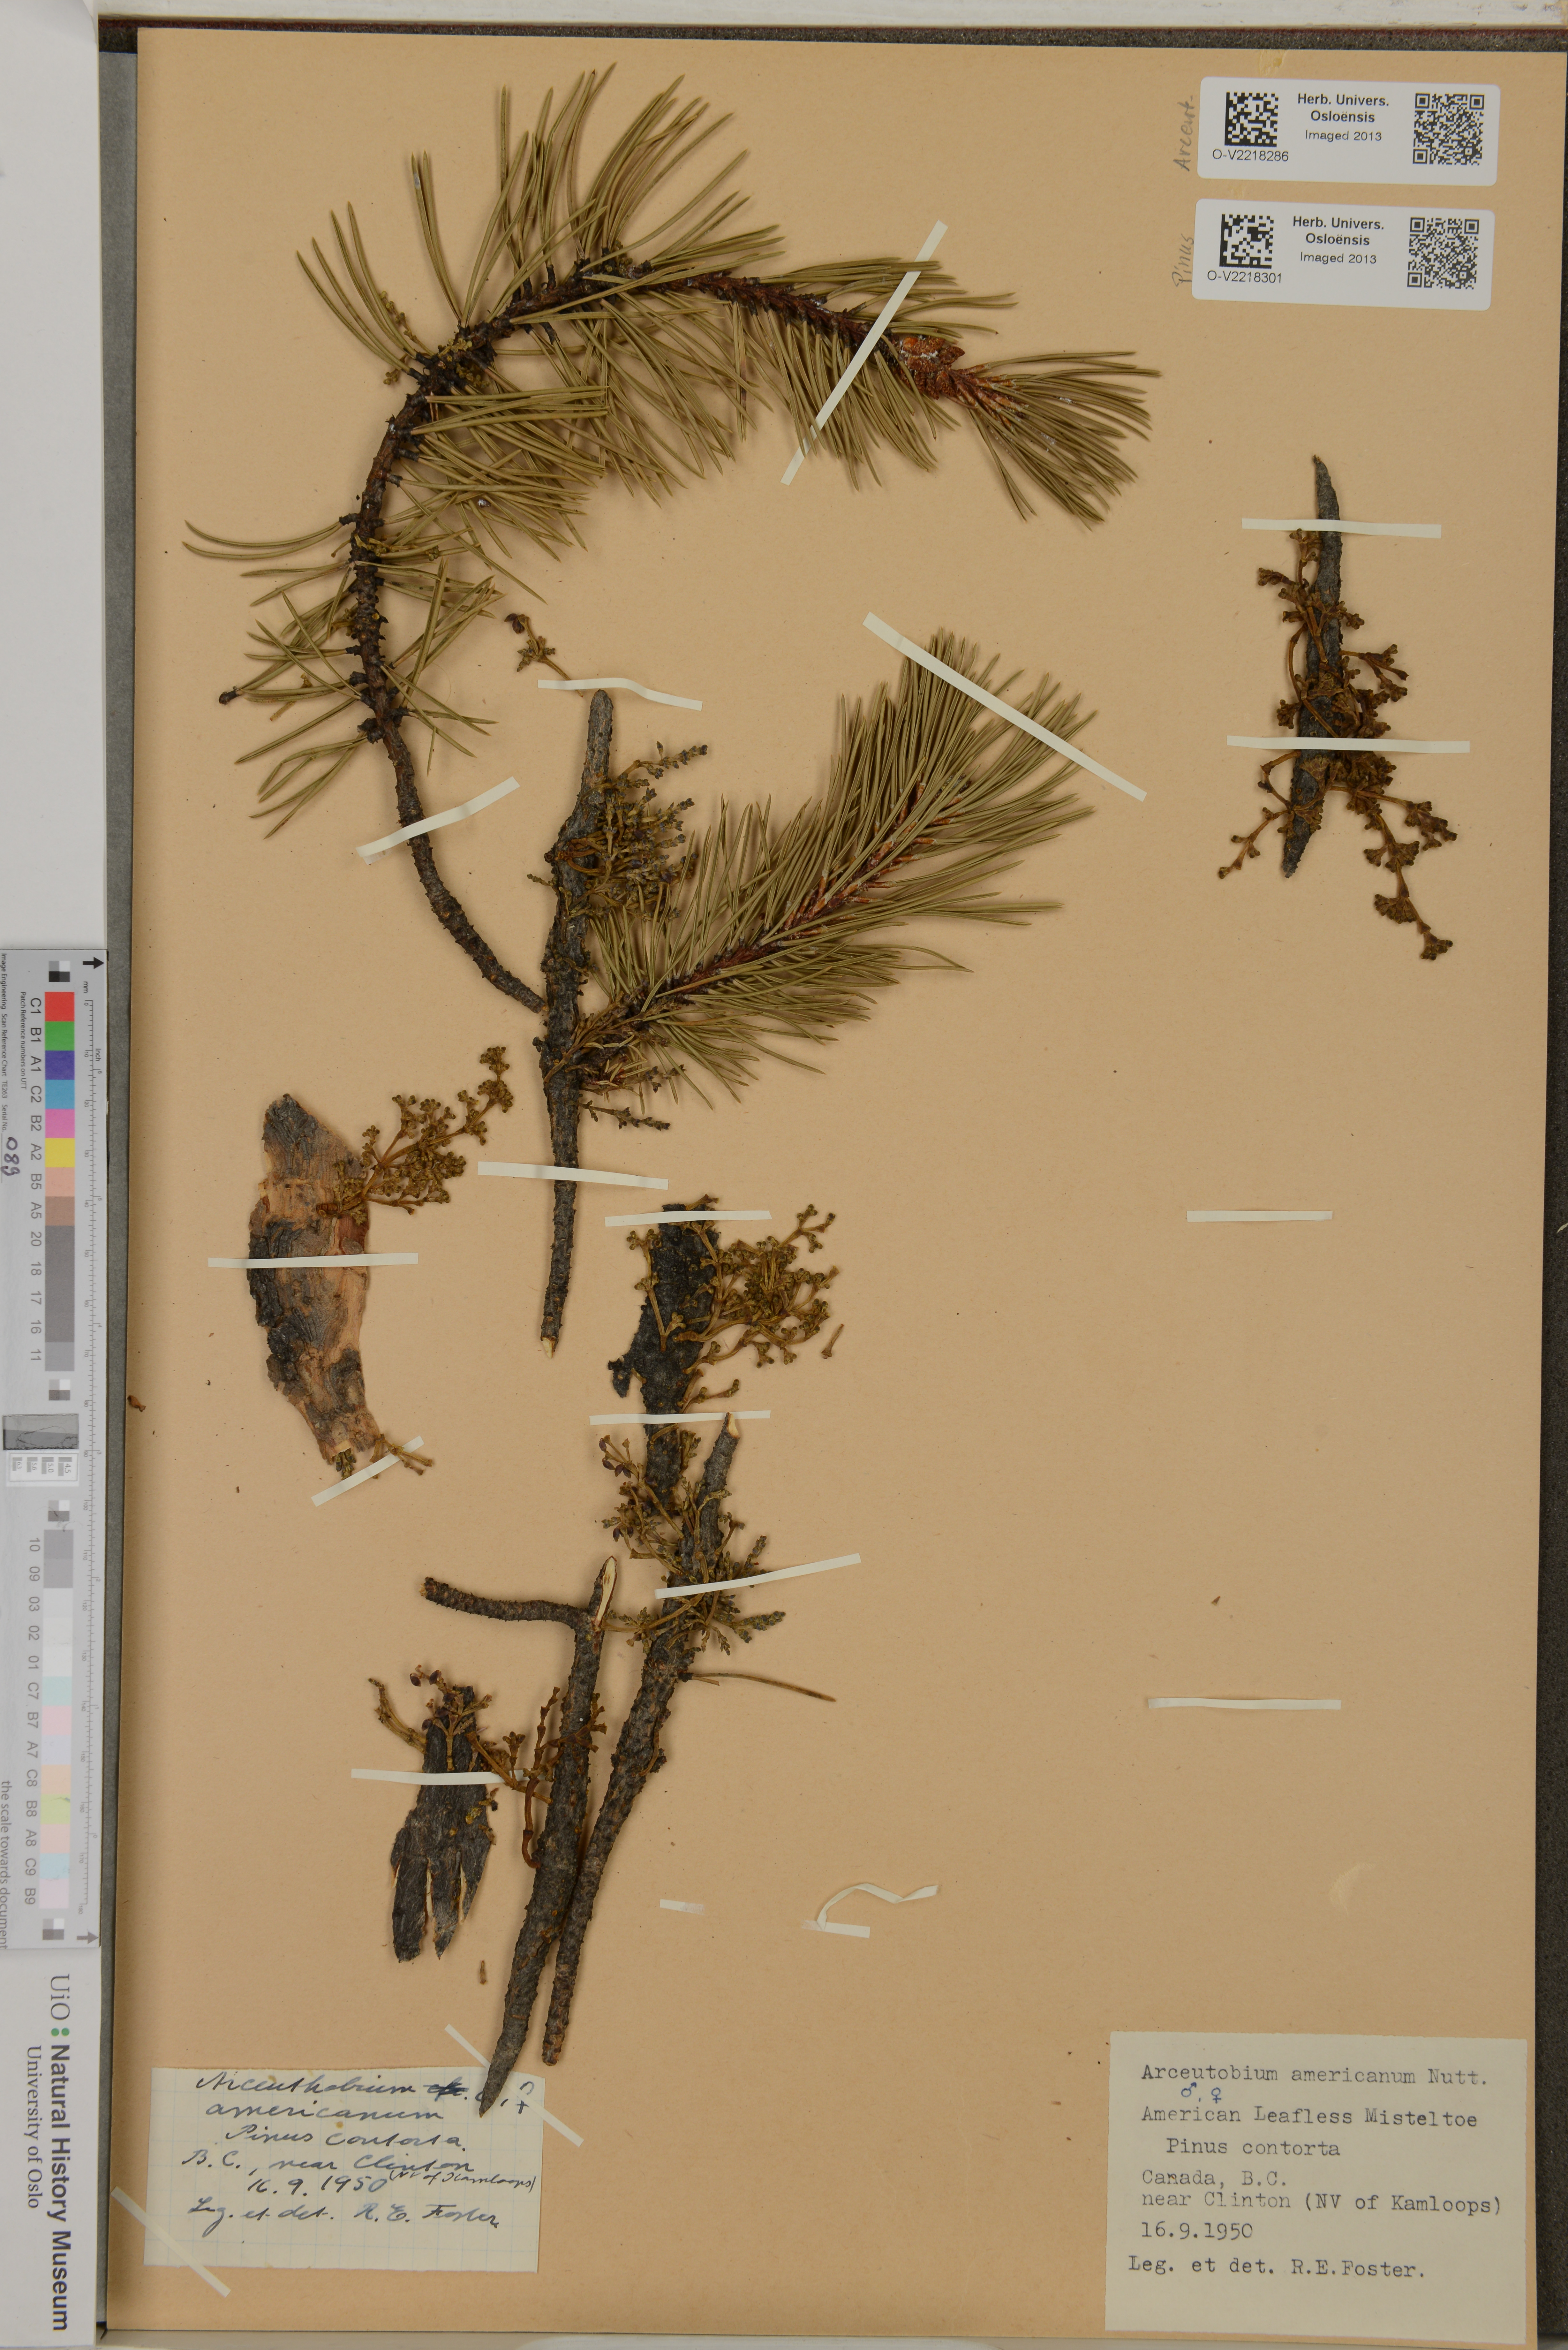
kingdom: Plantae
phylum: Tracheophyta
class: Magnoliopsida
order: Santalales
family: Viscaceae
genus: Arceuthobium
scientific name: Arceuthobium americanum
